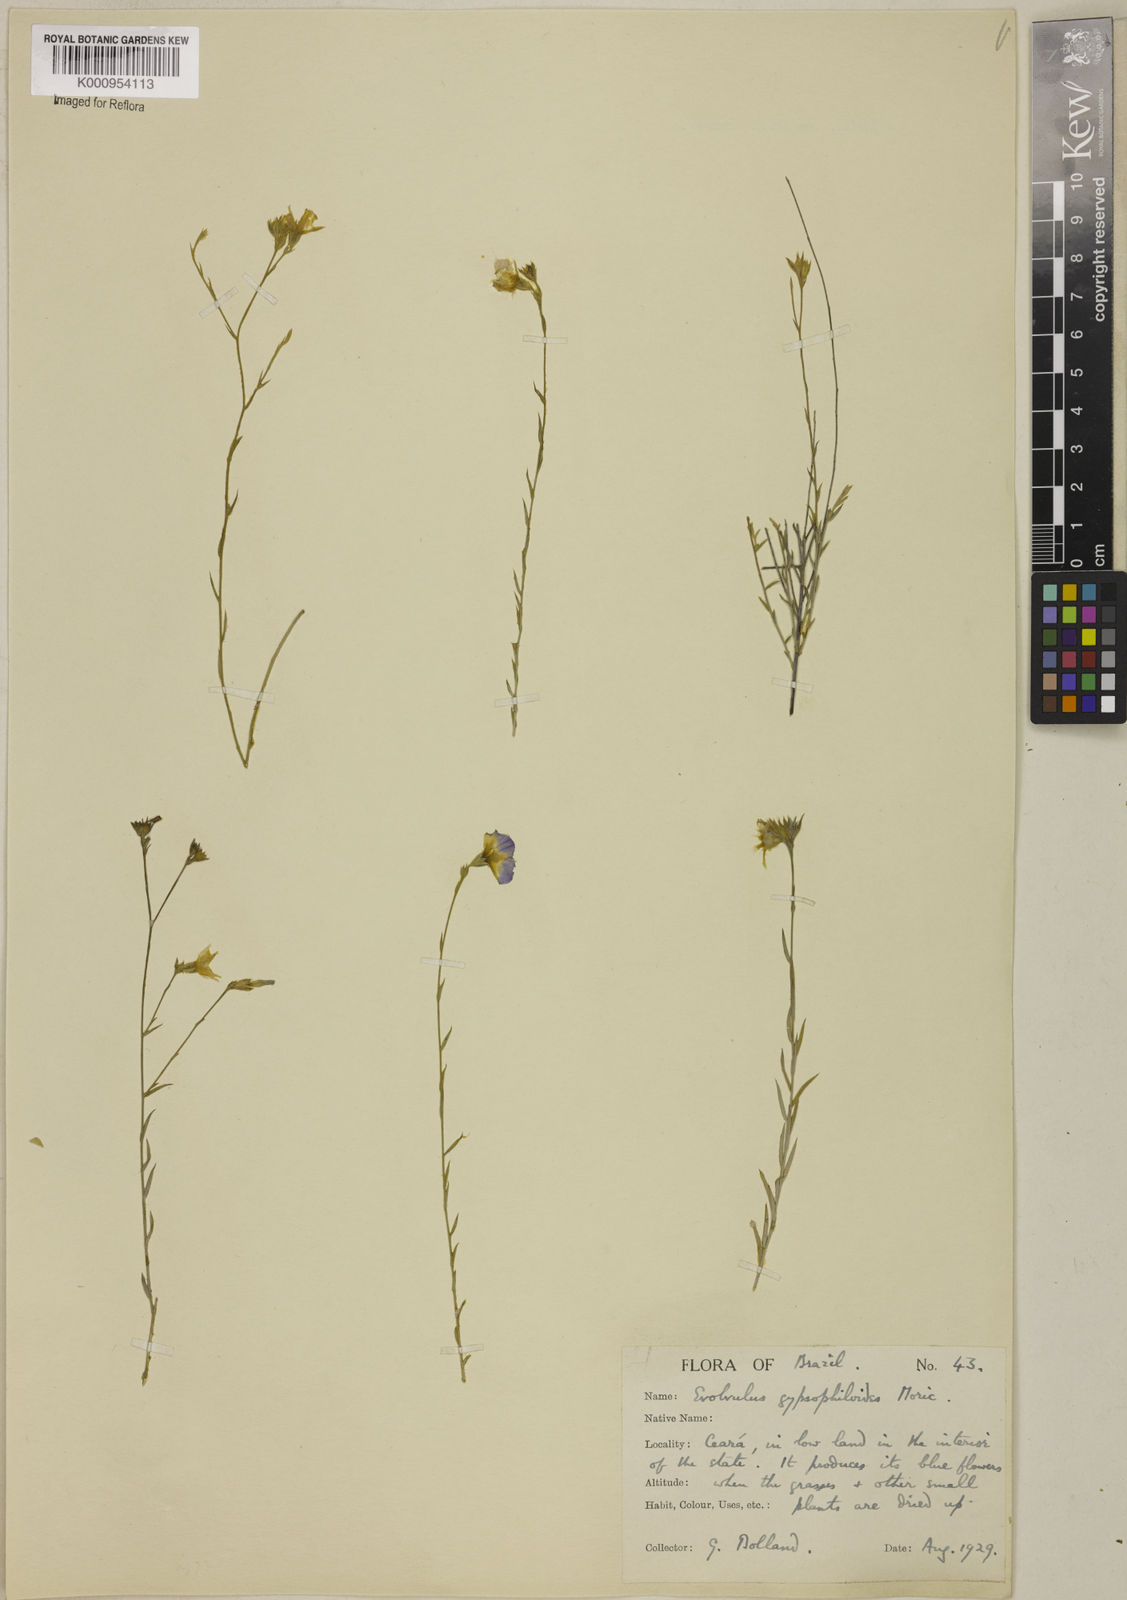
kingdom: Plantae
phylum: Tracheophyta
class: Magnoliopsida
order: Solanales
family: Convolvulaceae
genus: Evolvulus
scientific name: Evolvulus gypsophiloides
